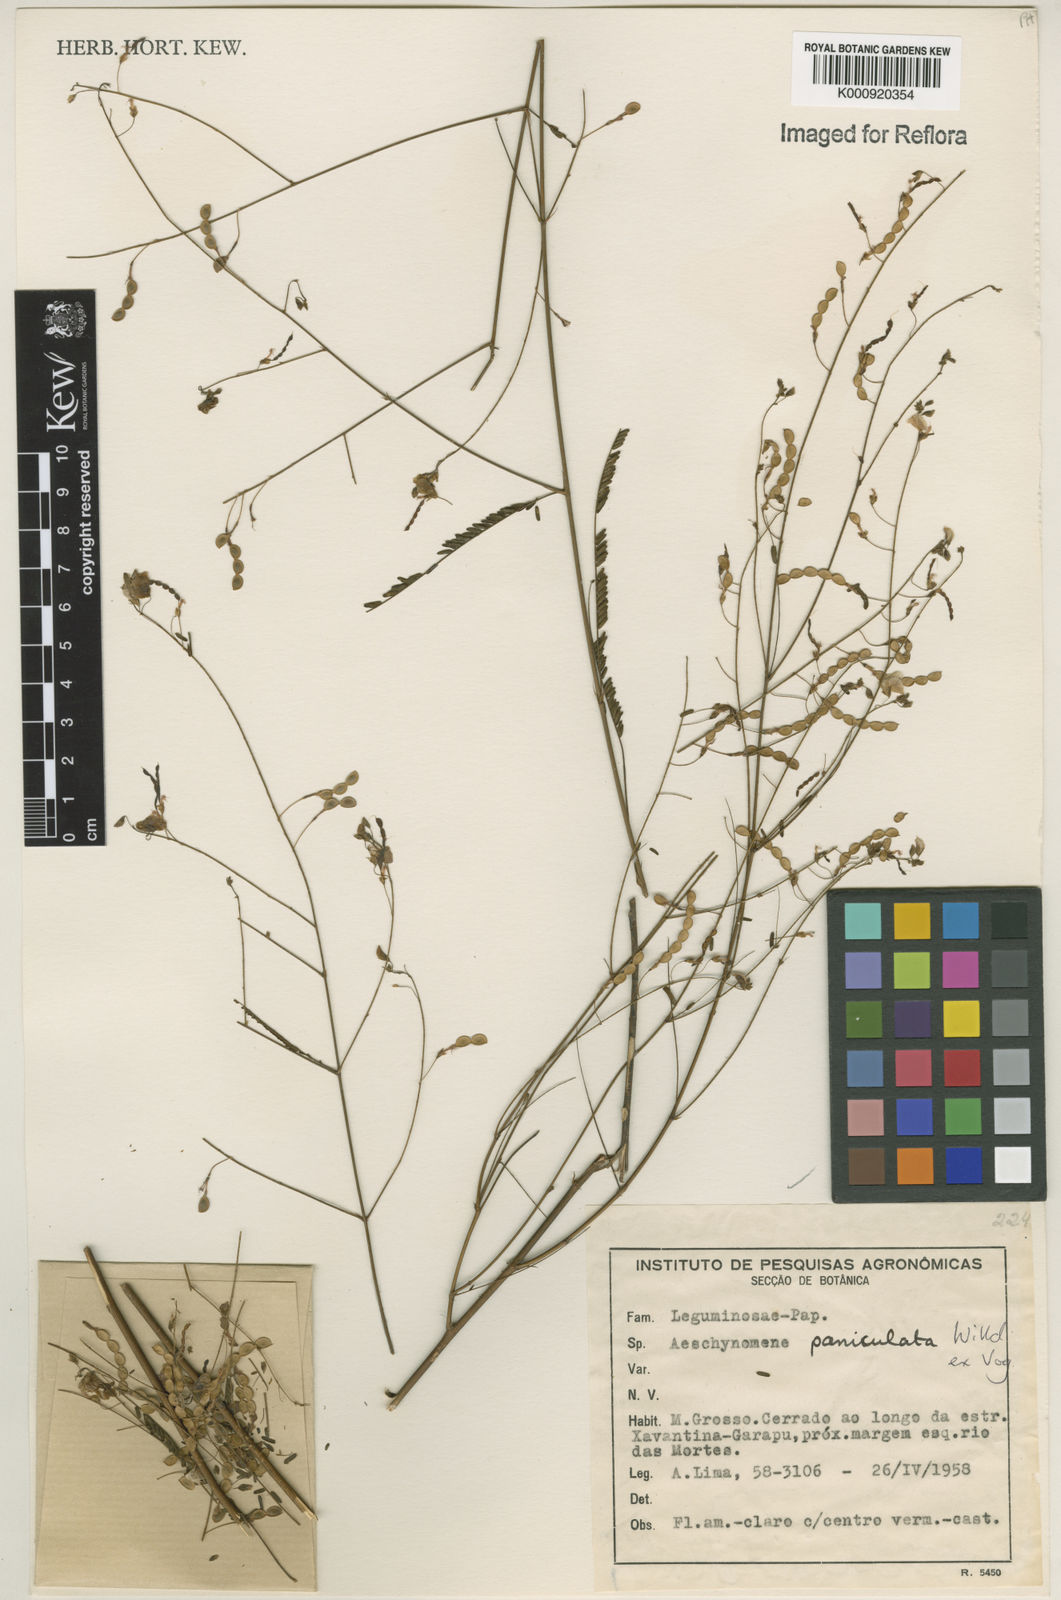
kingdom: Plantae
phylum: Tracheophyta
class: Magnoliopsida
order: Fabales
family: Fabaceae
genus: Ctenodon
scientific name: Ctenodon paniculatus
